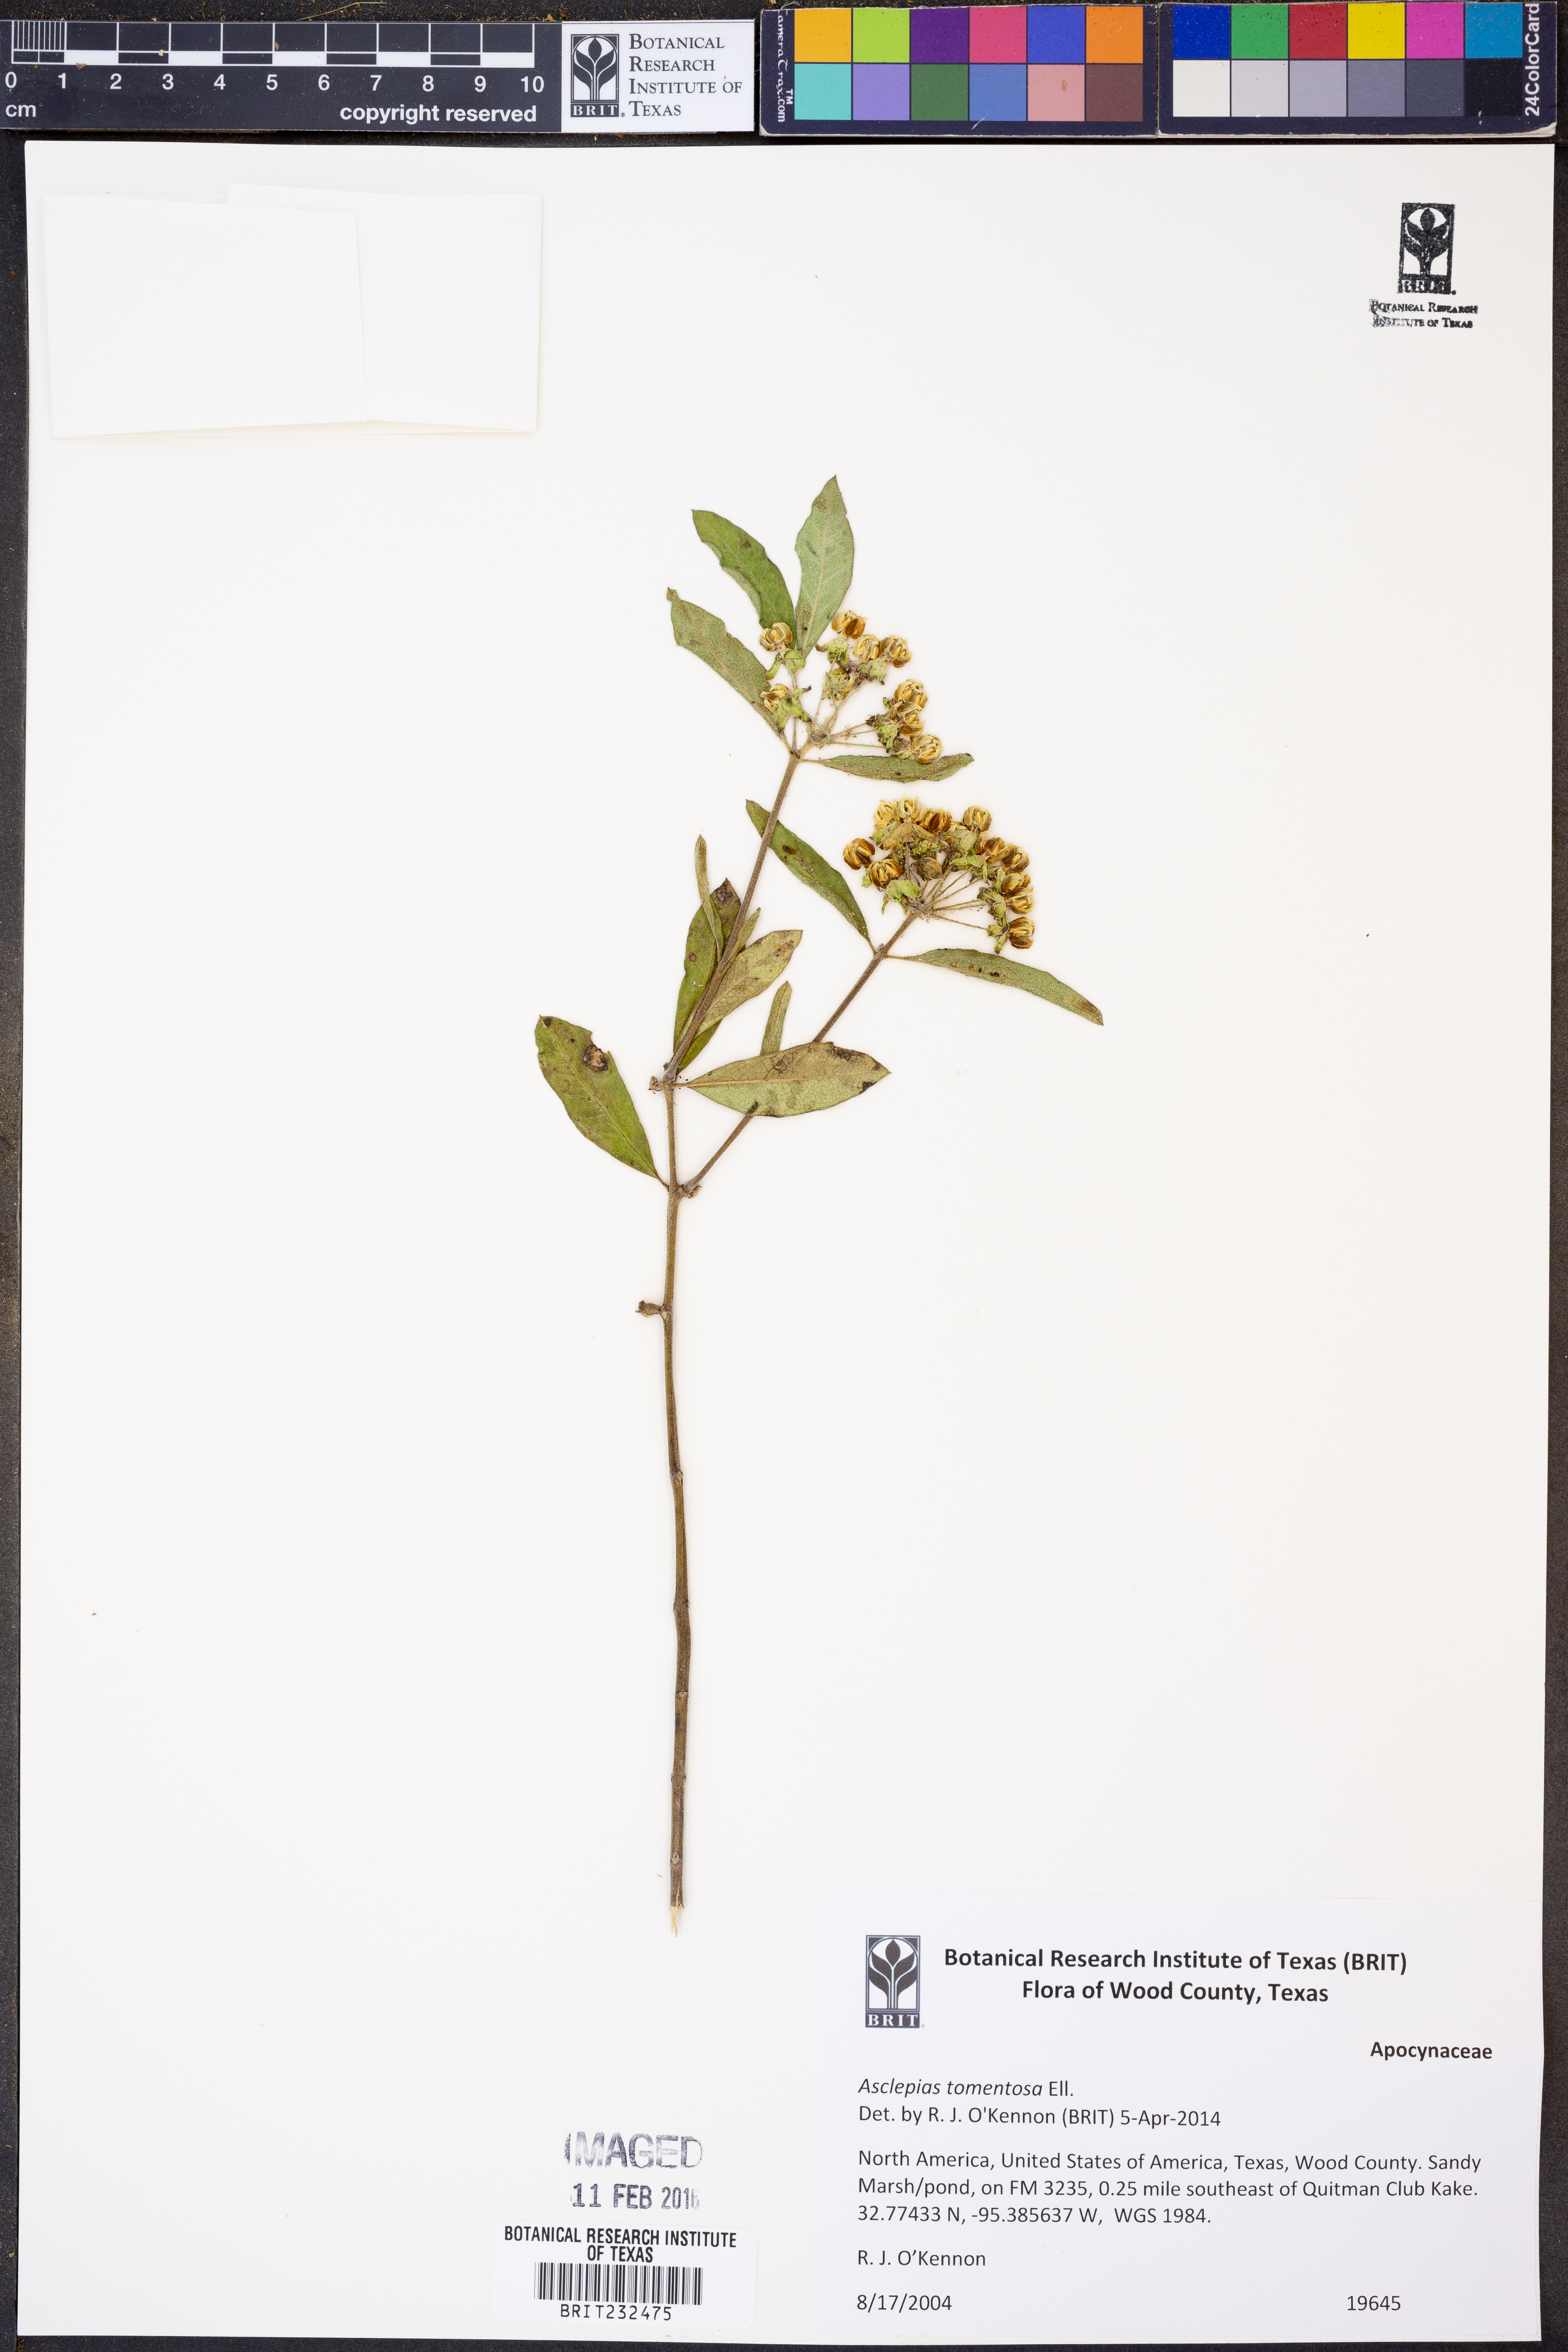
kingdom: Plantae
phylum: Tracheophyta
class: Magnoliopsida
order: Gentianales
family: Apocynaceae
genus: Asclepias
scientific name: Asclepias tomentosa
